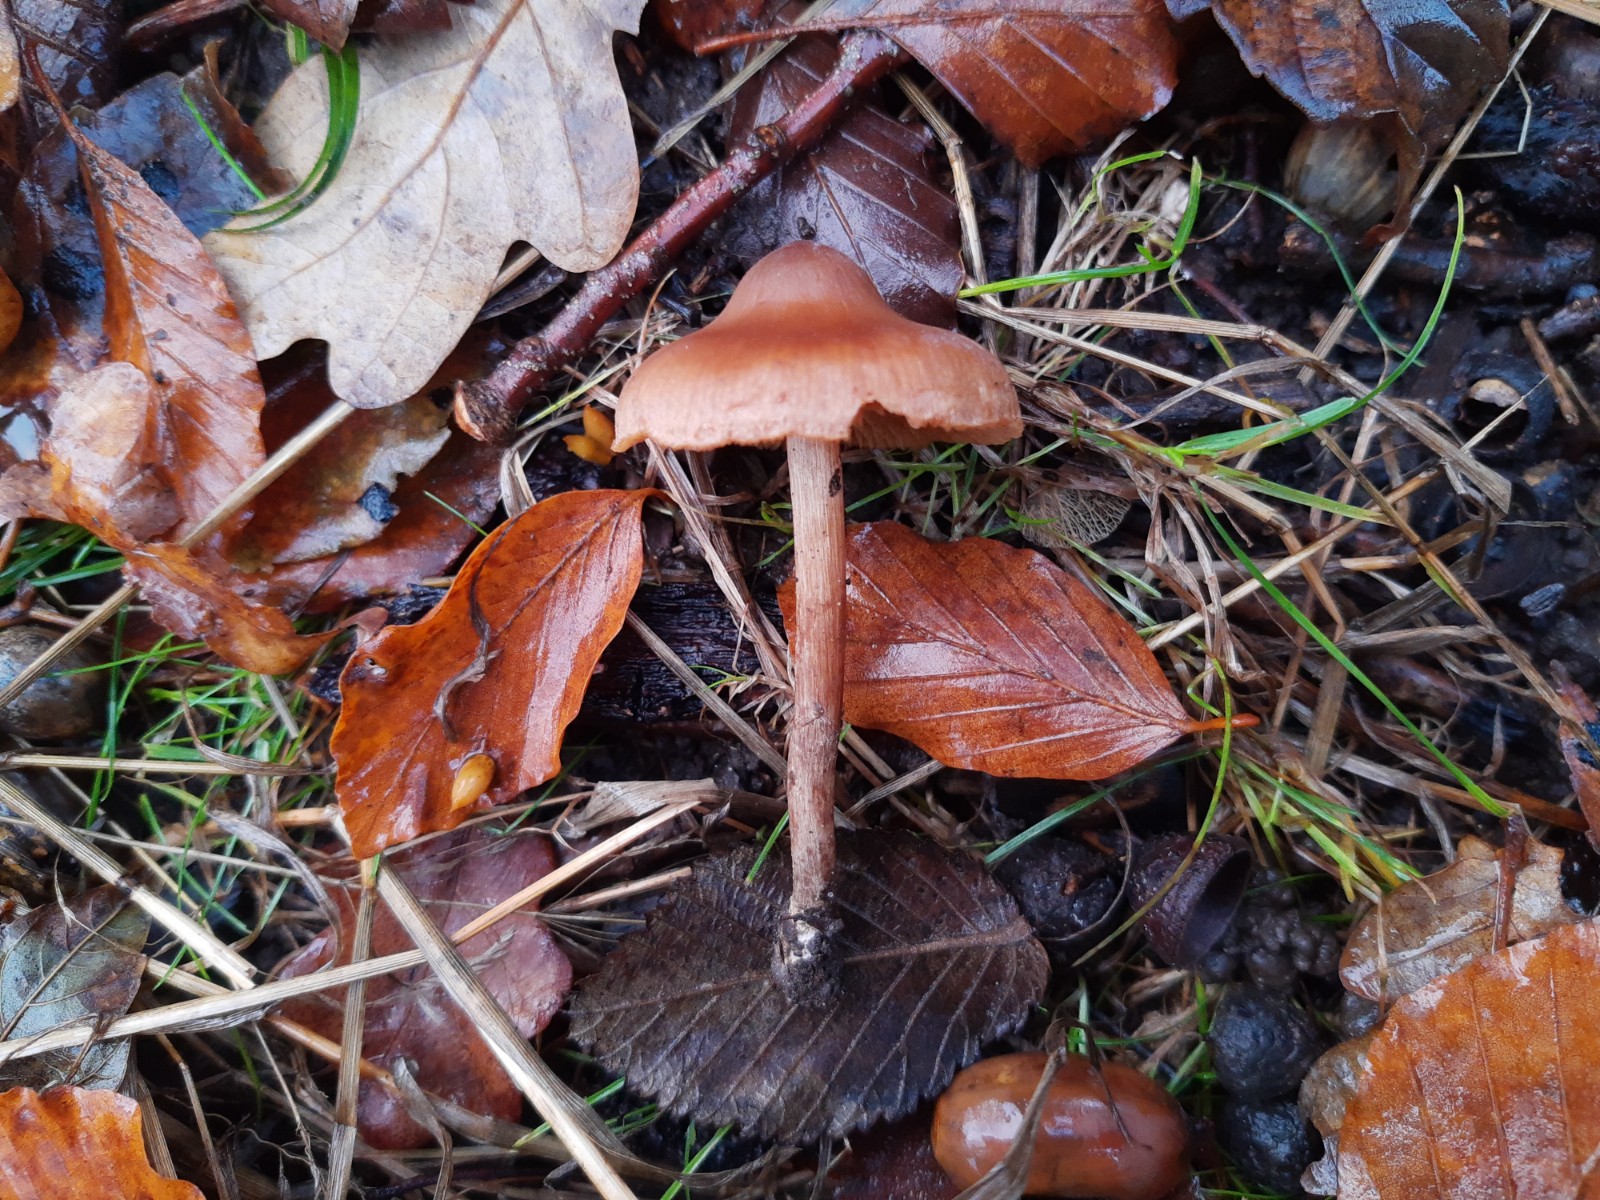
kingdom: Fungi
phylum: Basidiomycota
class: Agaricomycetes
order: Agaricales
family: Cortinariaceae
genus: Cortinarius
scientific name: Cortinarius
